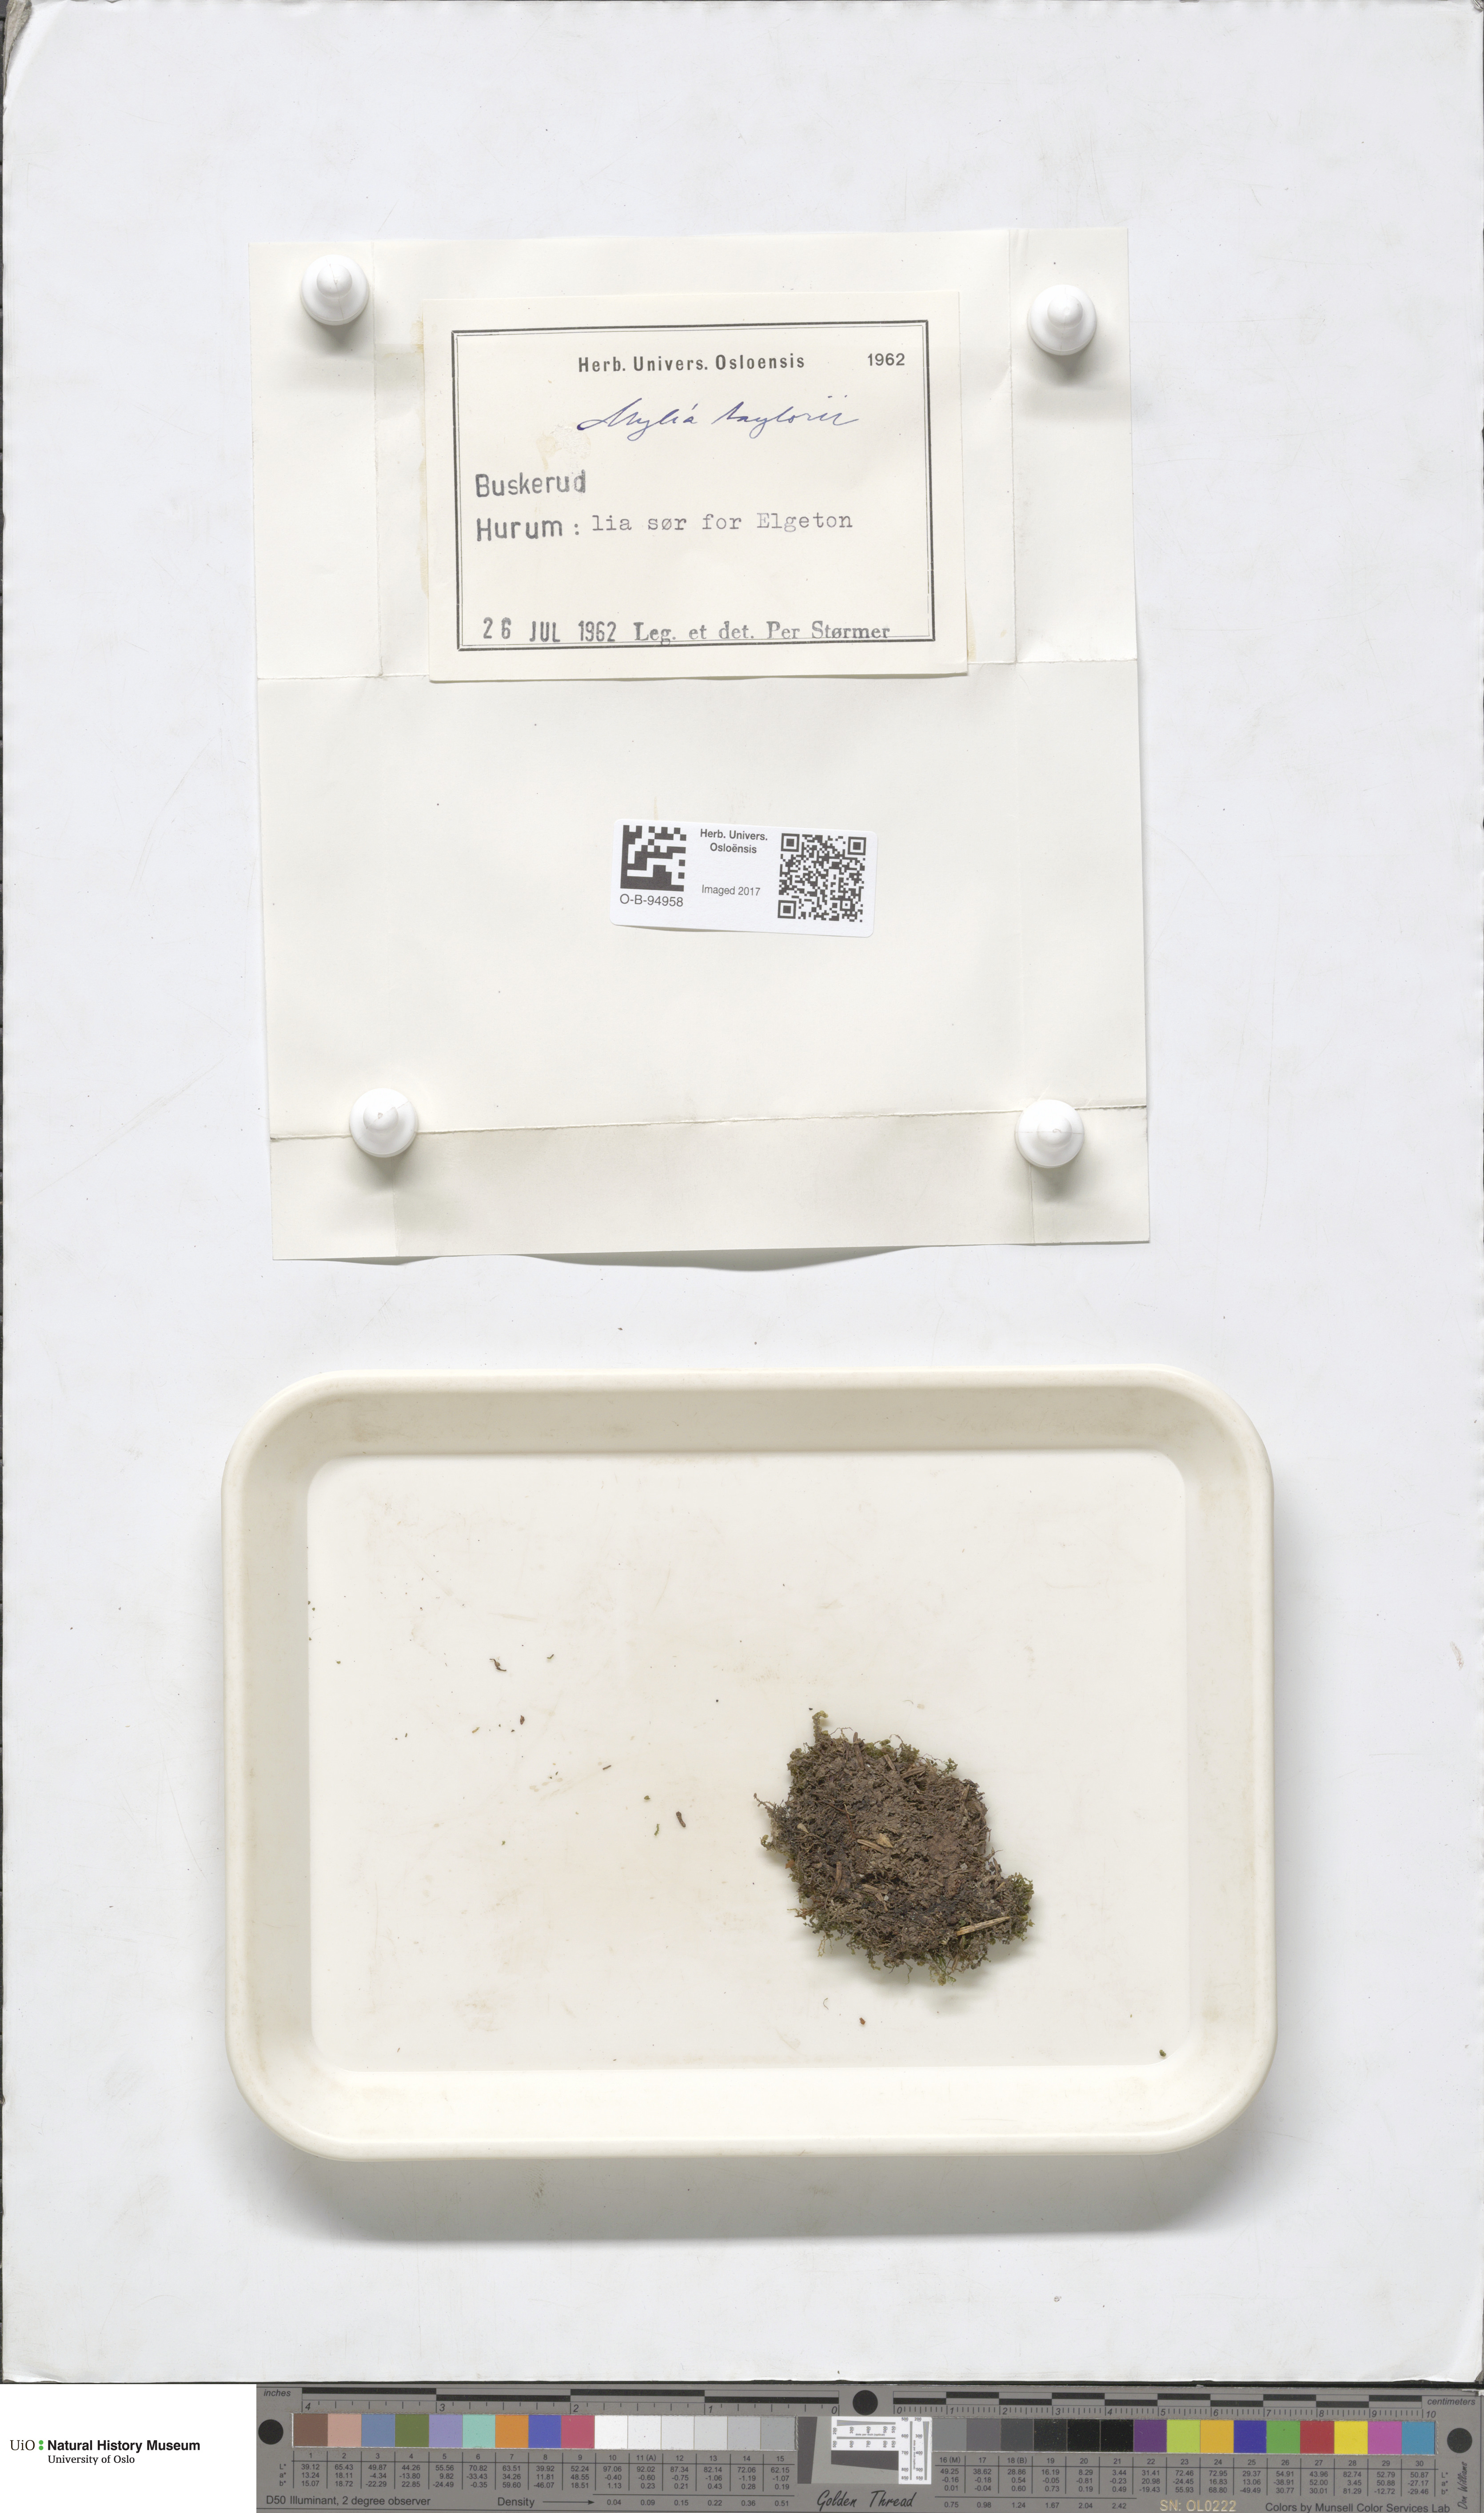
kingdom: Plantae
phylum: Marchantiophyta
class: Jungermanniopsida
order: Jungermanniales
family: Myliaceae
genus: Mylia
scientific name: Mylia taylorii
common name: Taylor s flapwort
